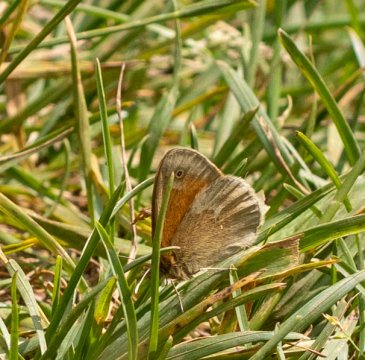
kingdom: Animalia
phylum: Arthropoda
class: Insecta
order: Lepidoptera
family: Nymphalidae
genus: Coenonympha
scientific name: Coenonympha tullia
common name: Large Heath
